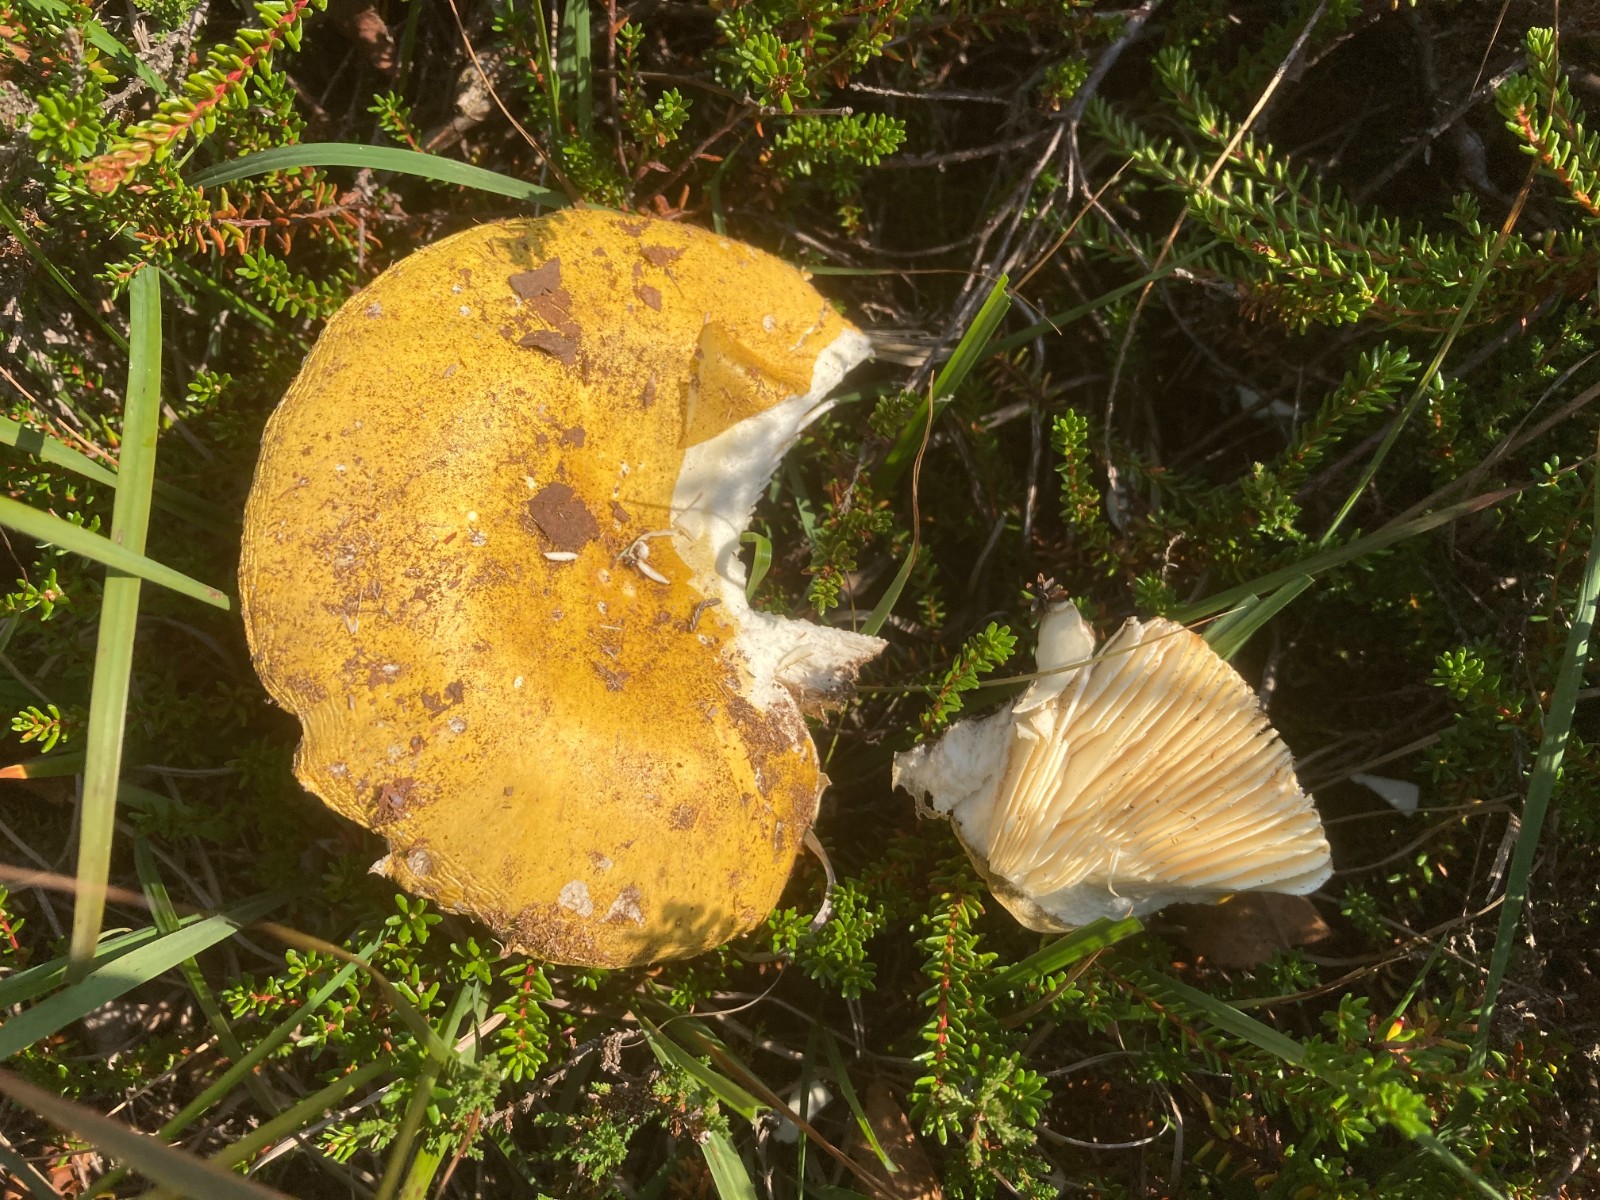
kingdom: Fungi
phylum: Basidiomycota
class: Agaricomycetes
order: Russulales
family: Russulaceae
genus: Russula
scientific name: Russula claroflava
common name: birke-skørhat
